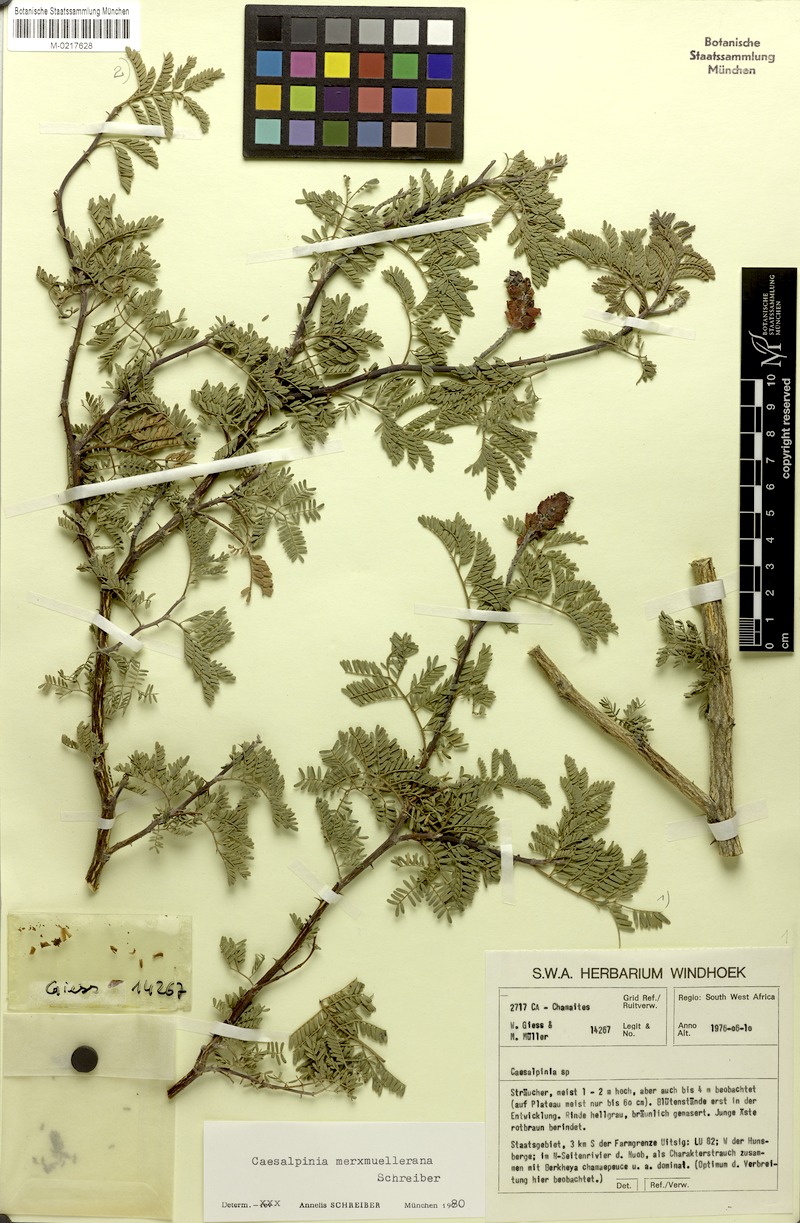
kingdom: Plantae
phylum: Tracheophyta
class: Magnoliopsida
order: Fabales
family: Fabaceae
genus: Gelrebia
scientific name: Gelrebia merxmuellerana
